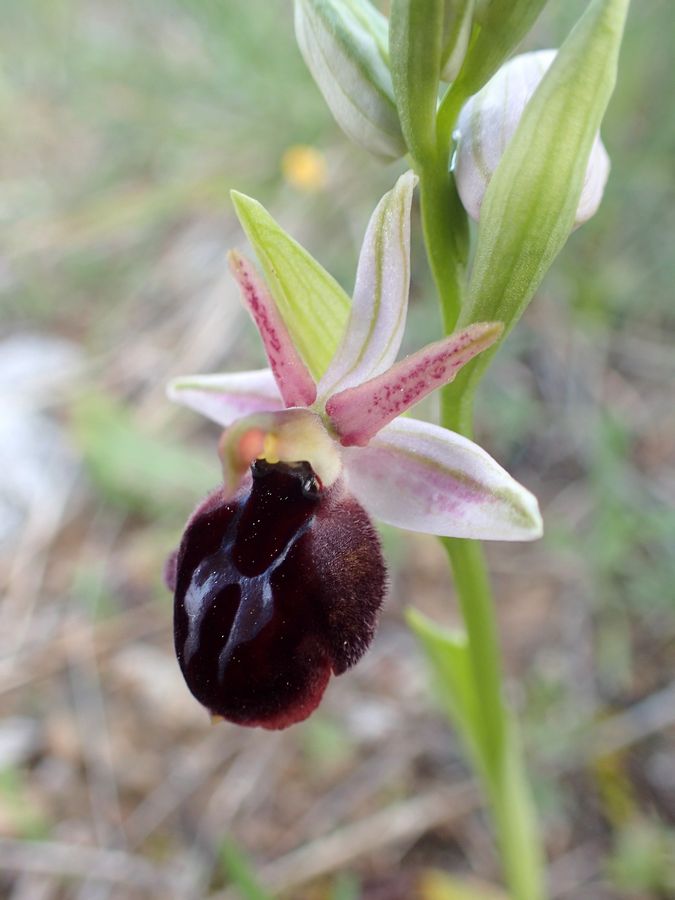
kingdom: Plantae
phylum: Tracheophyta
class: Liliopsida
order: Asparagales
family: Orchidaceae
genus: Ophrys
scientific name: Ophrys sphegodes
